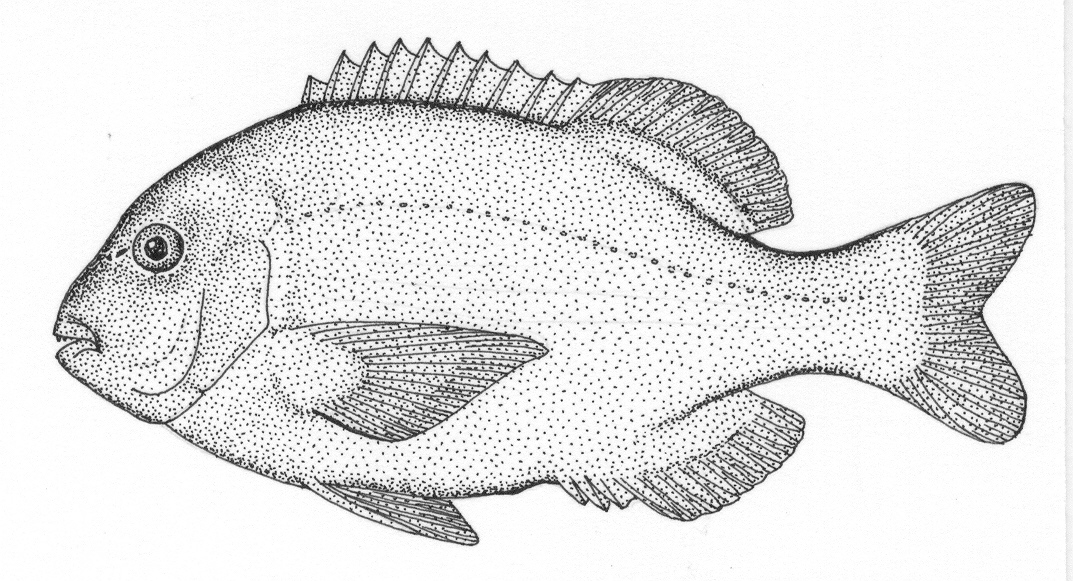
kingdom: Animalia
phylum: Chordata
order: Perciformes
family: Sparidae
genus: Gymnocrotaphus
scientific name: Gymnocrotaphus curvidens
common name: Janbruin
